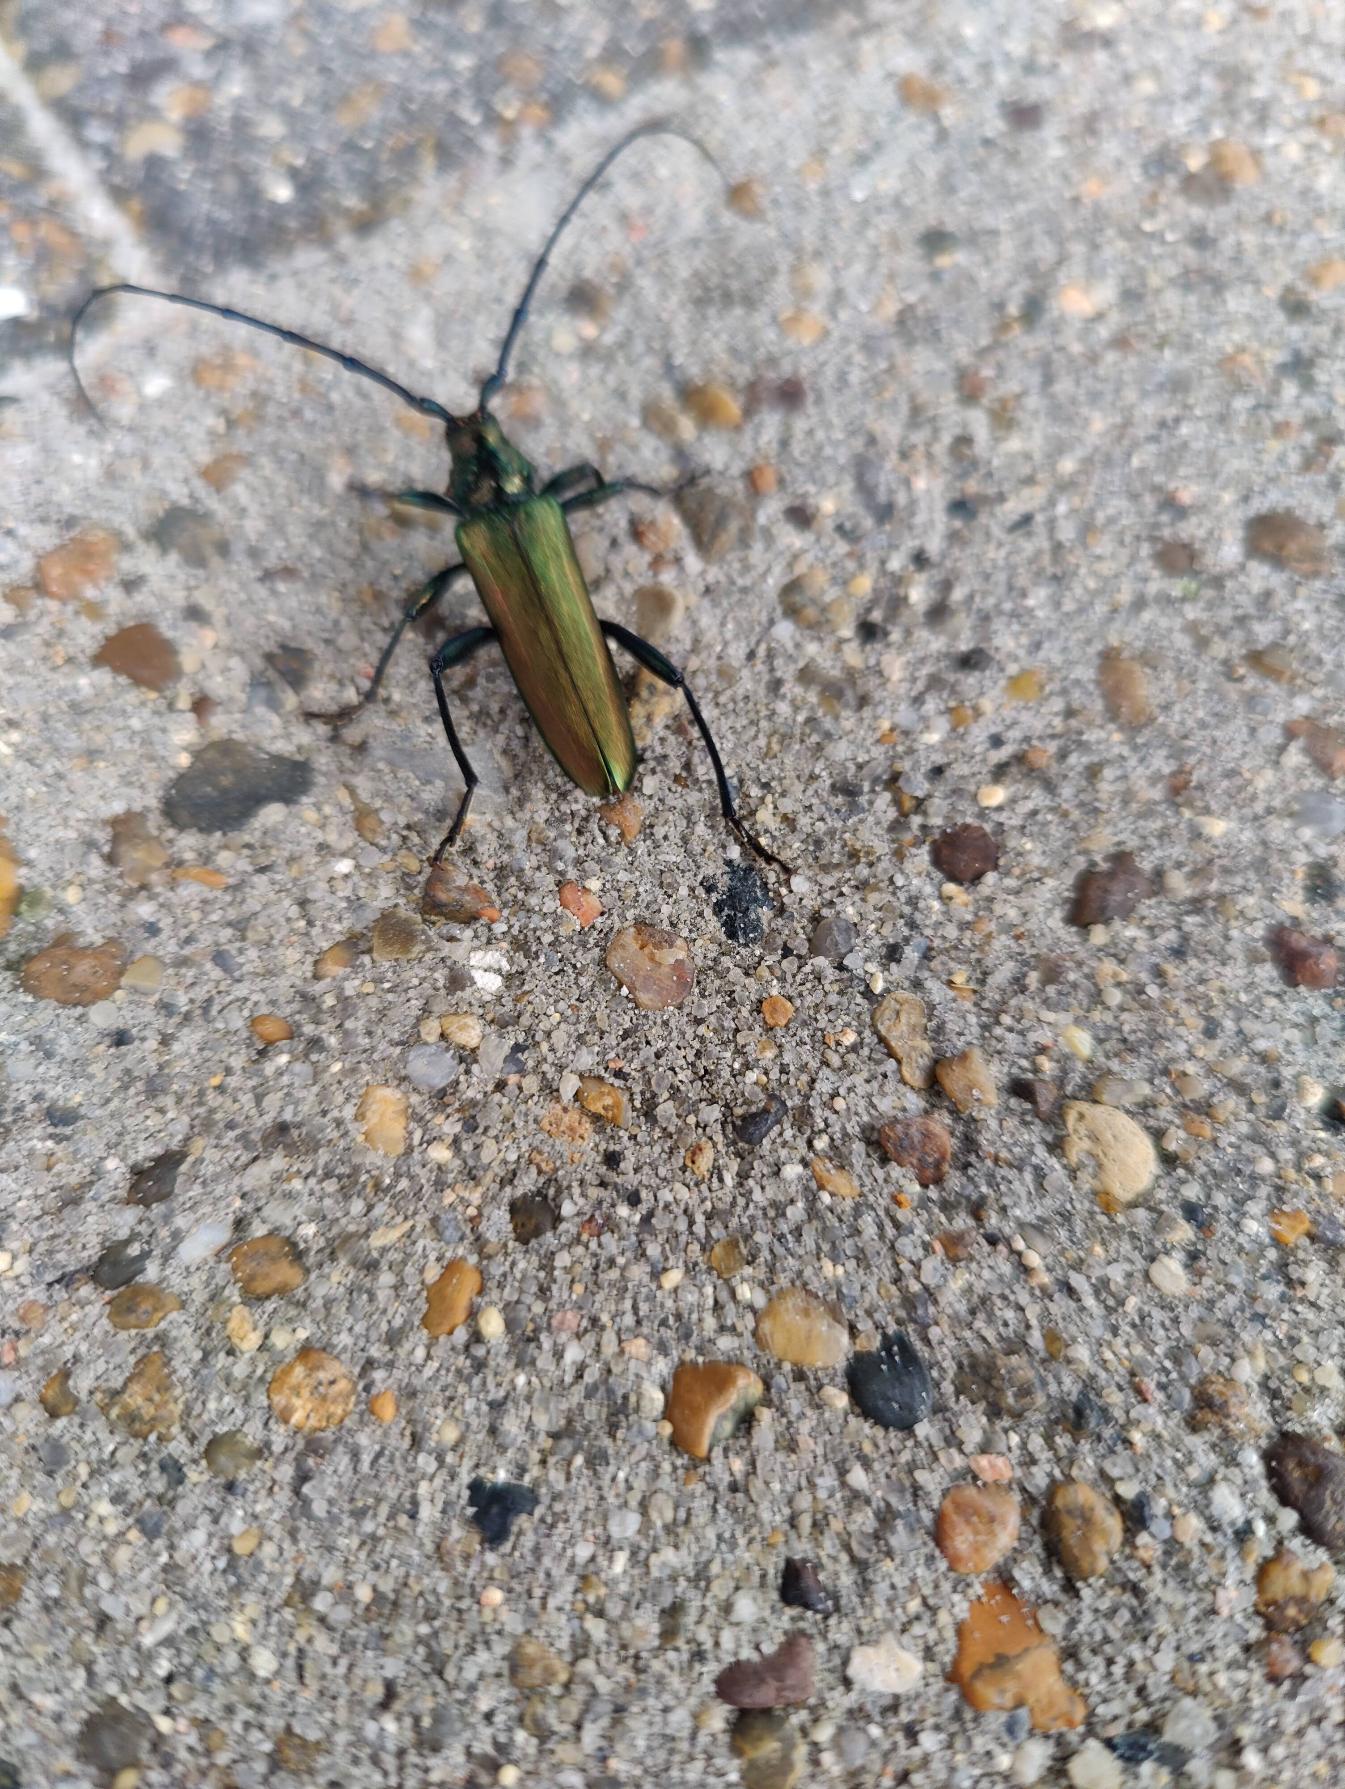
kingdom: Animalia
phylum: Arthropoda
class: Insecta
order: Coleoptera
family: Cerambycidae
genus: Aromia
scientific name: Aromia moschata
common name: Moskusbuk
